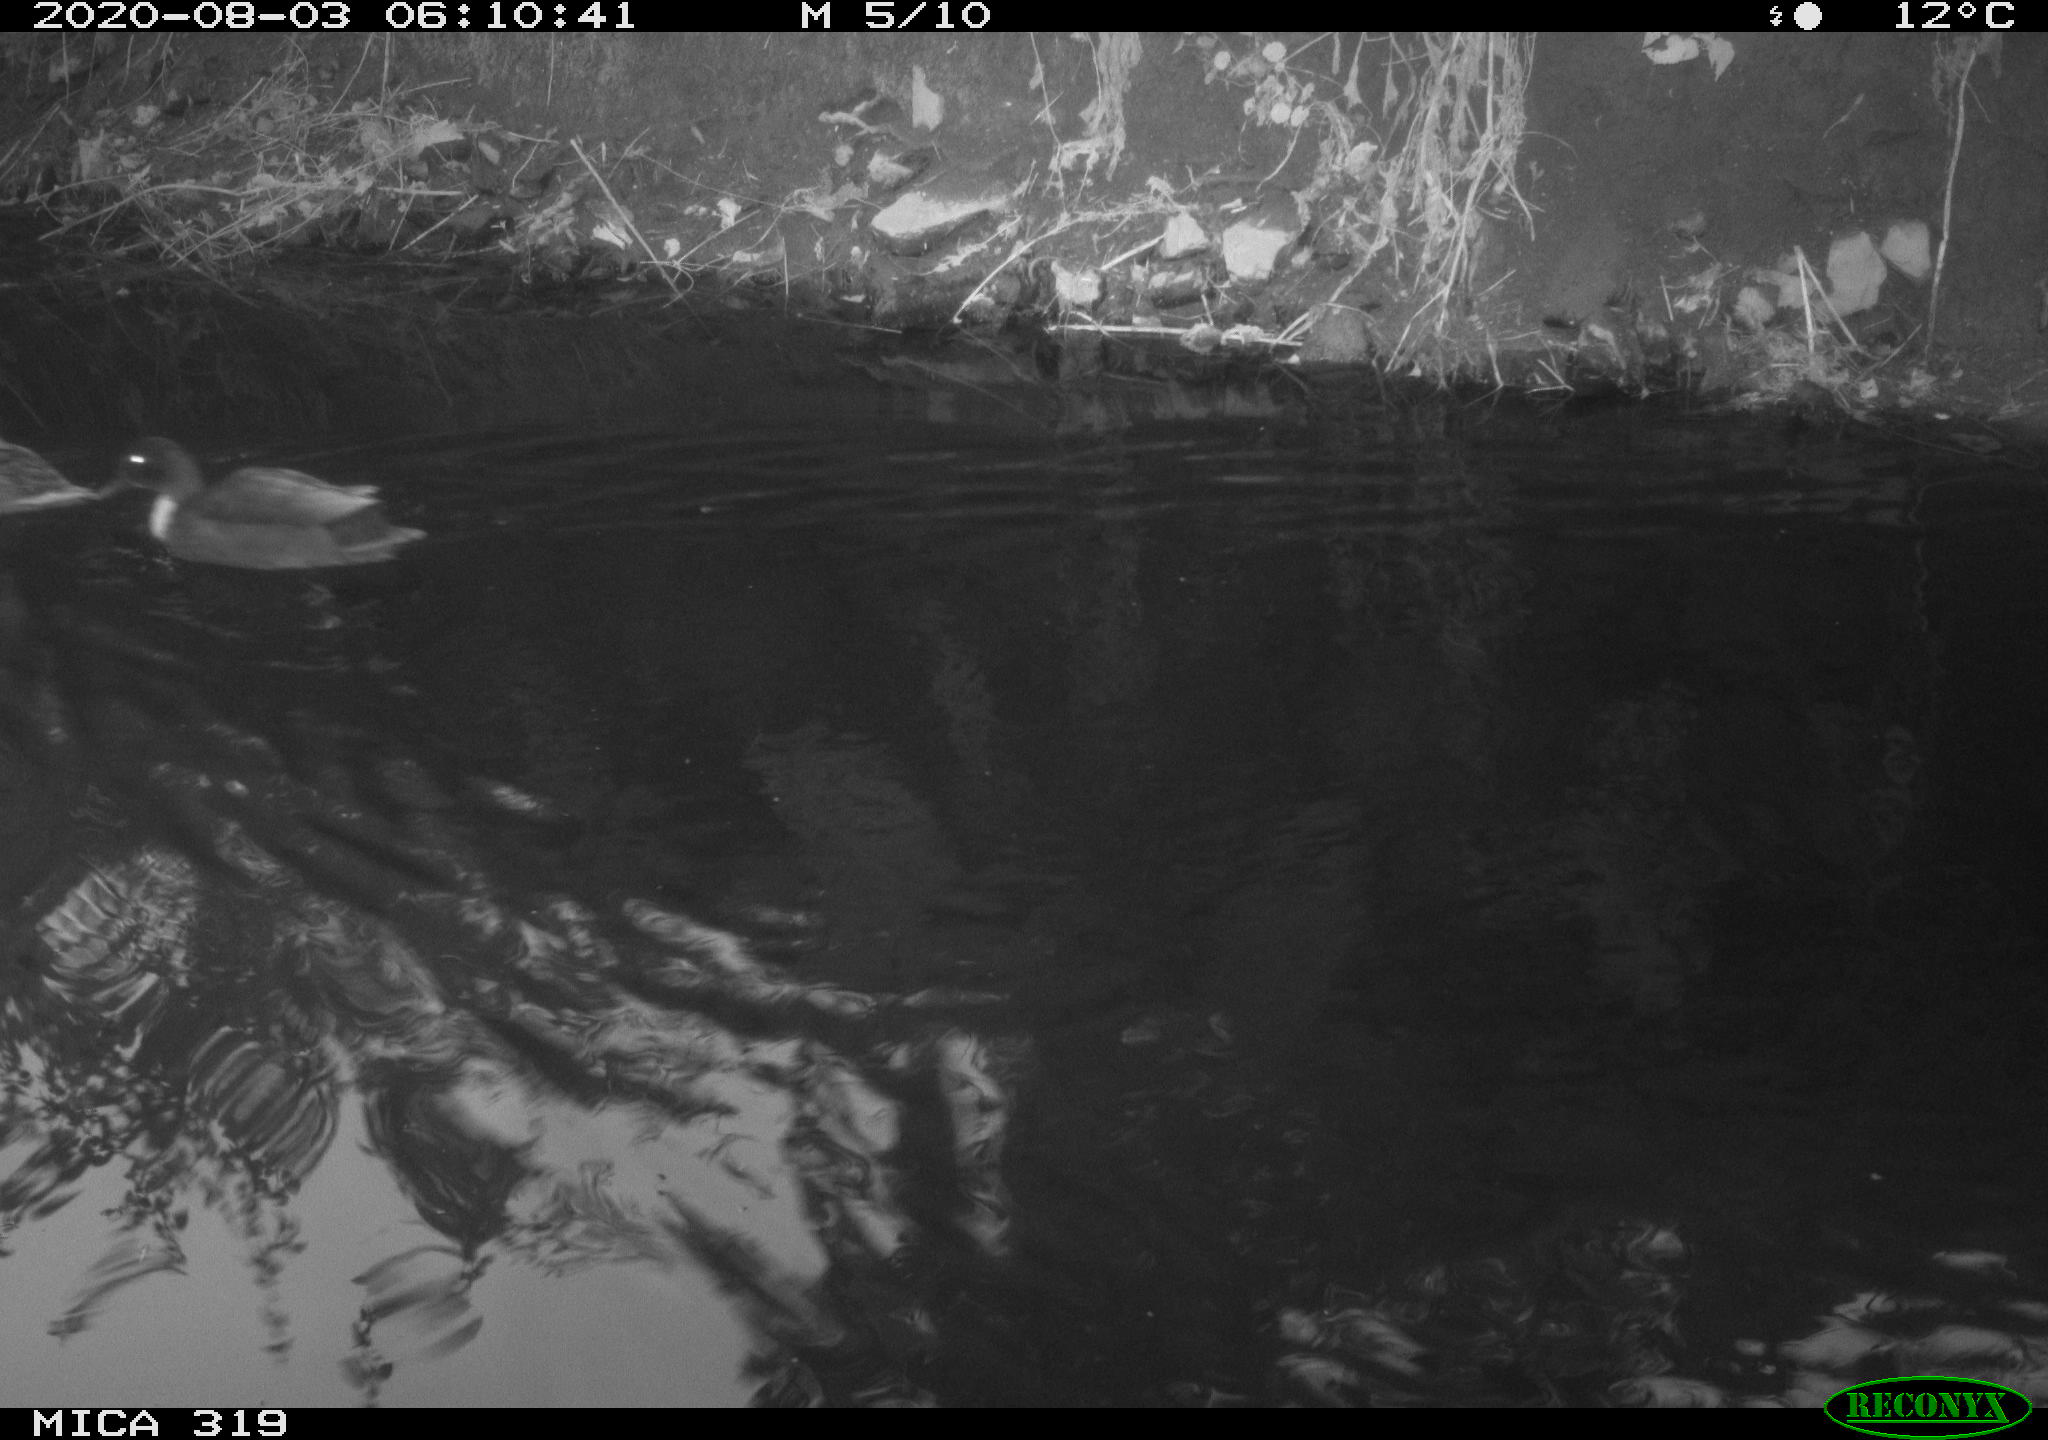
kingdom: Animalia
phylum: Chordata
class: Aves
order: Anseriformes
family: Anatidae
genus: Anas
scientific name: Anas platyrhynchos
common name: Mallard
